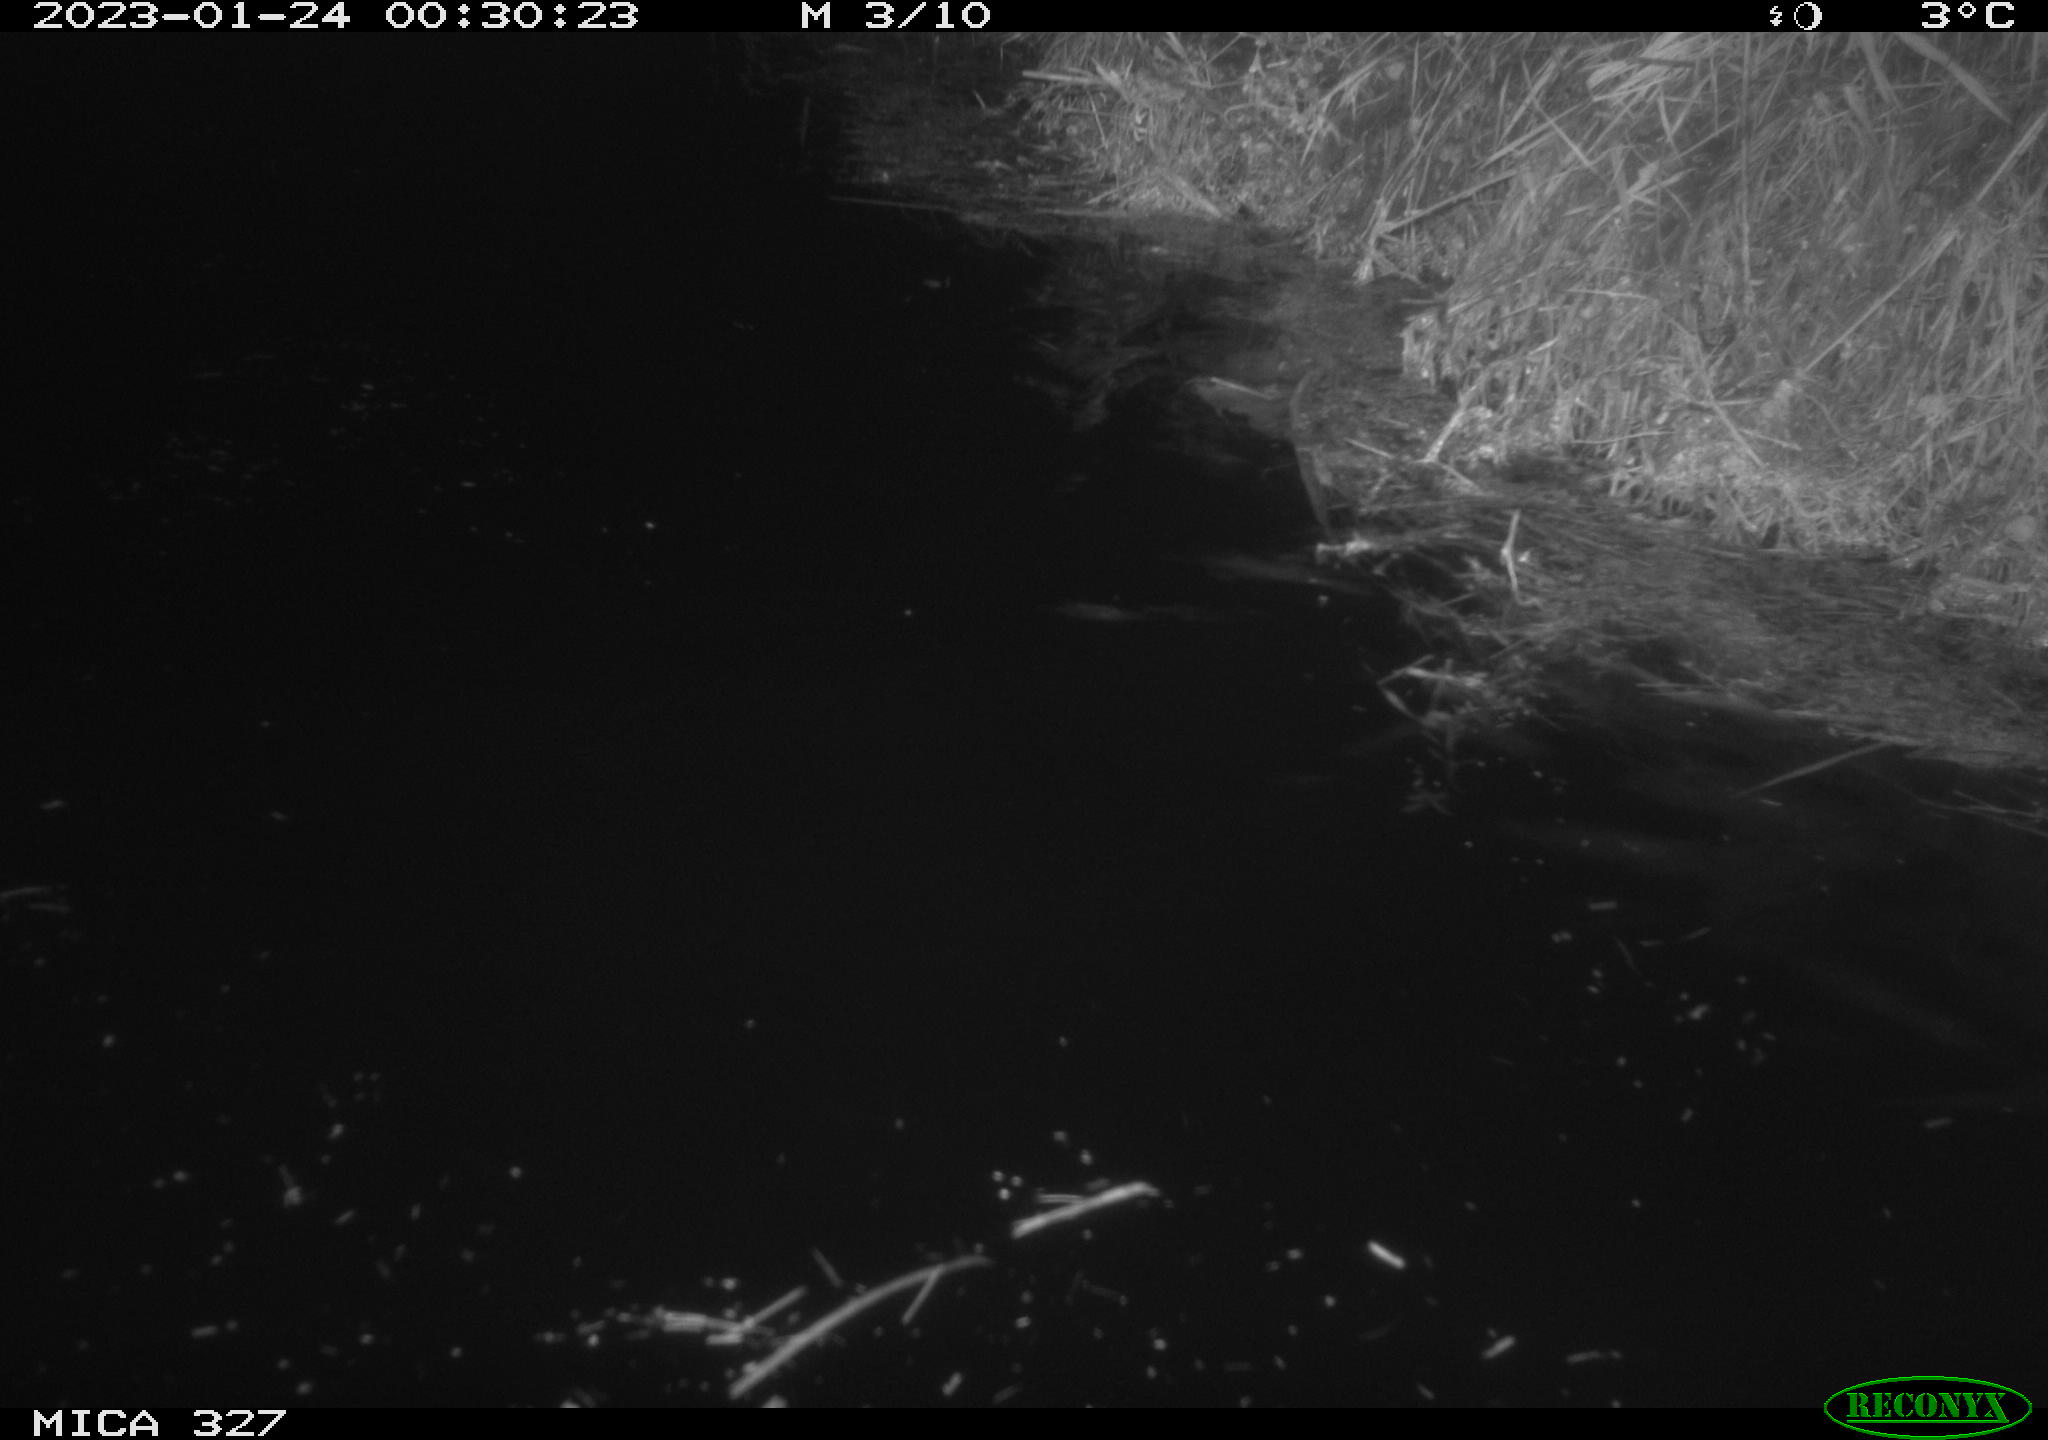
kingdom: Animalia
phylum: Chordata
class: Mammalia
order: Rodentia
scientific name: Rodentia
